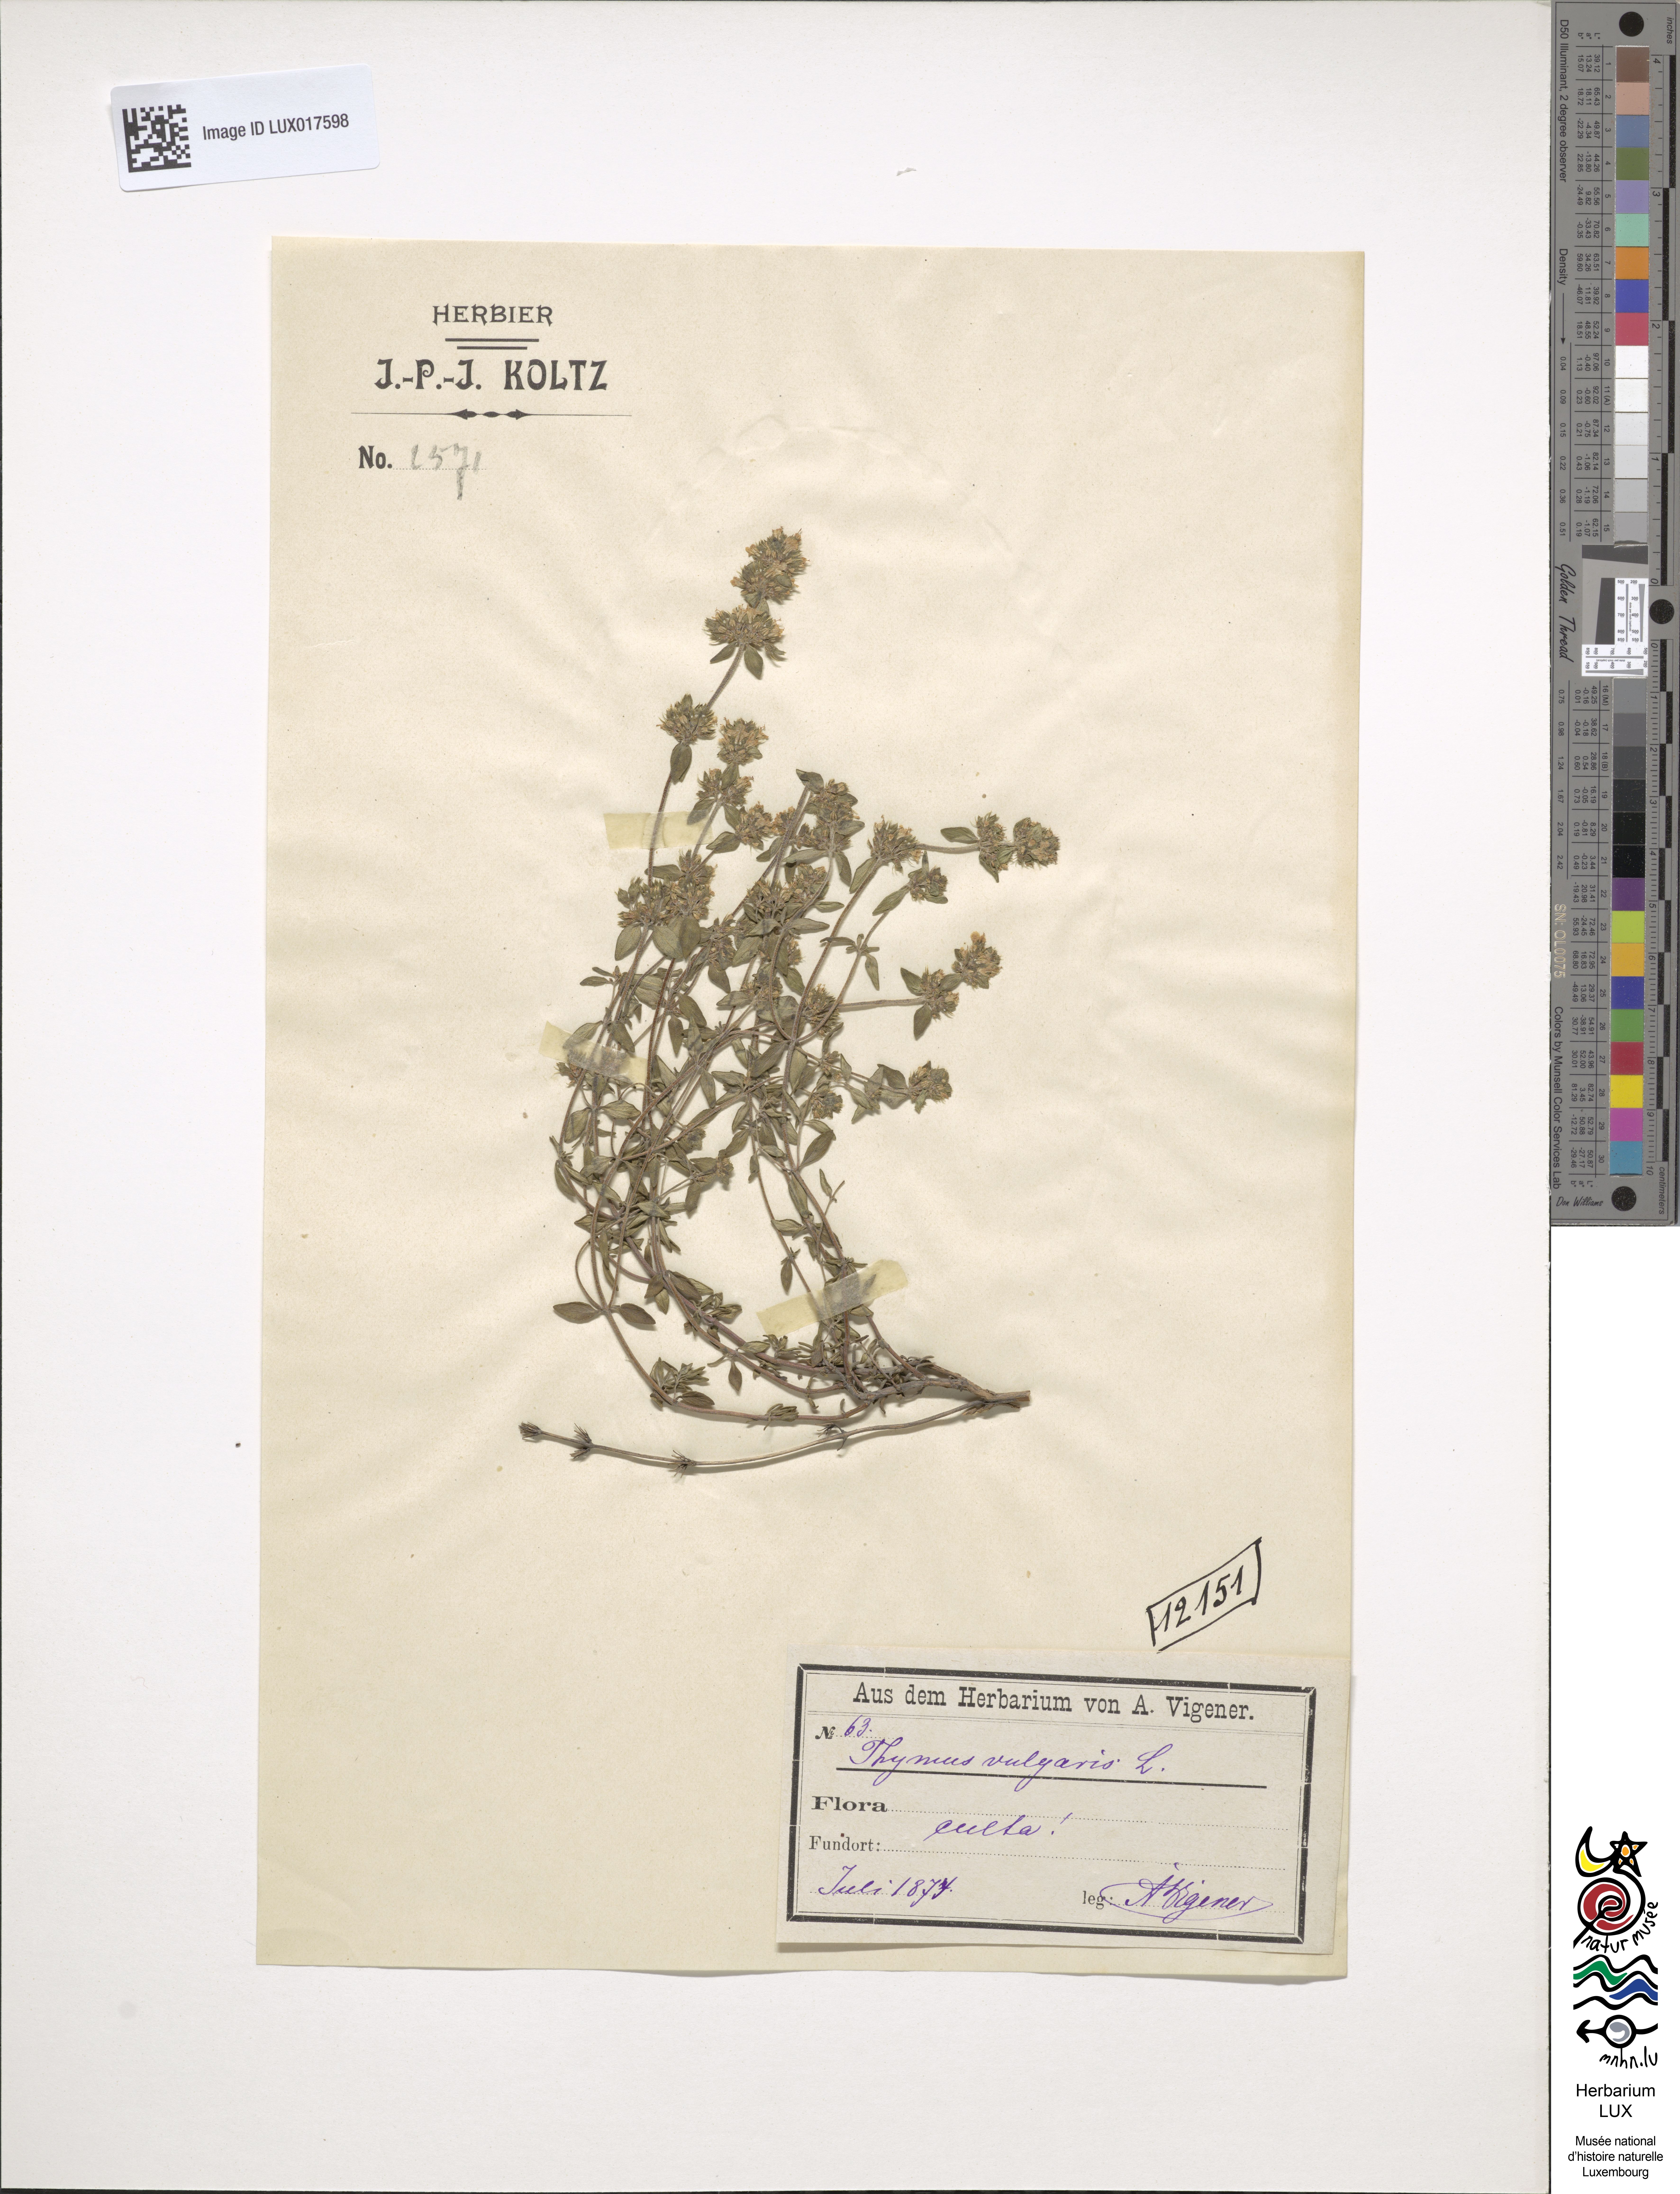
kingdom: Plantae
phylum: Tracheophyta
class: Magnoliopsida
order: Lamiales
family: Lamiaceae
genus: Thymus
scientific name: Thymus vulgaris
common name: Garden thyme
